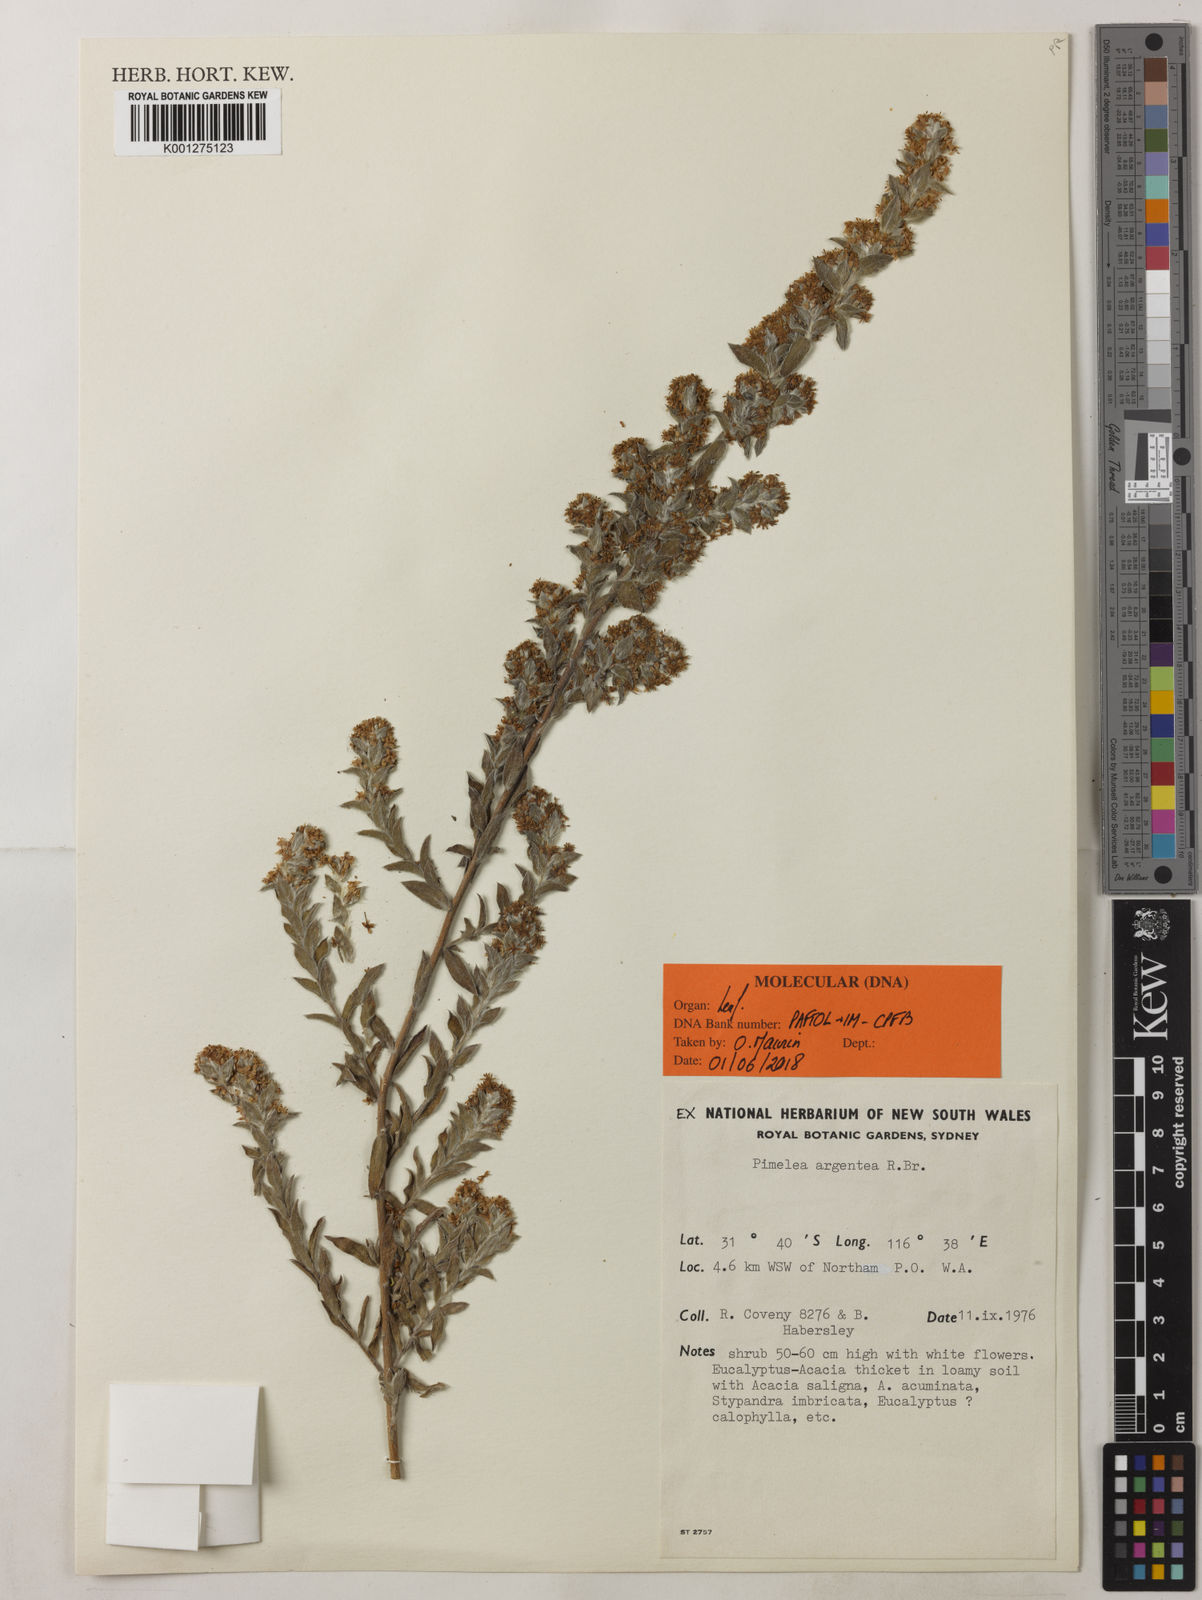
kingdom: Plantae
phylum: Tracheophyta
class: Magnoliopsida
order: Malvales
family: Thymelaeaceae
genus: Pimelea
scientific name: Pimelea argentea
